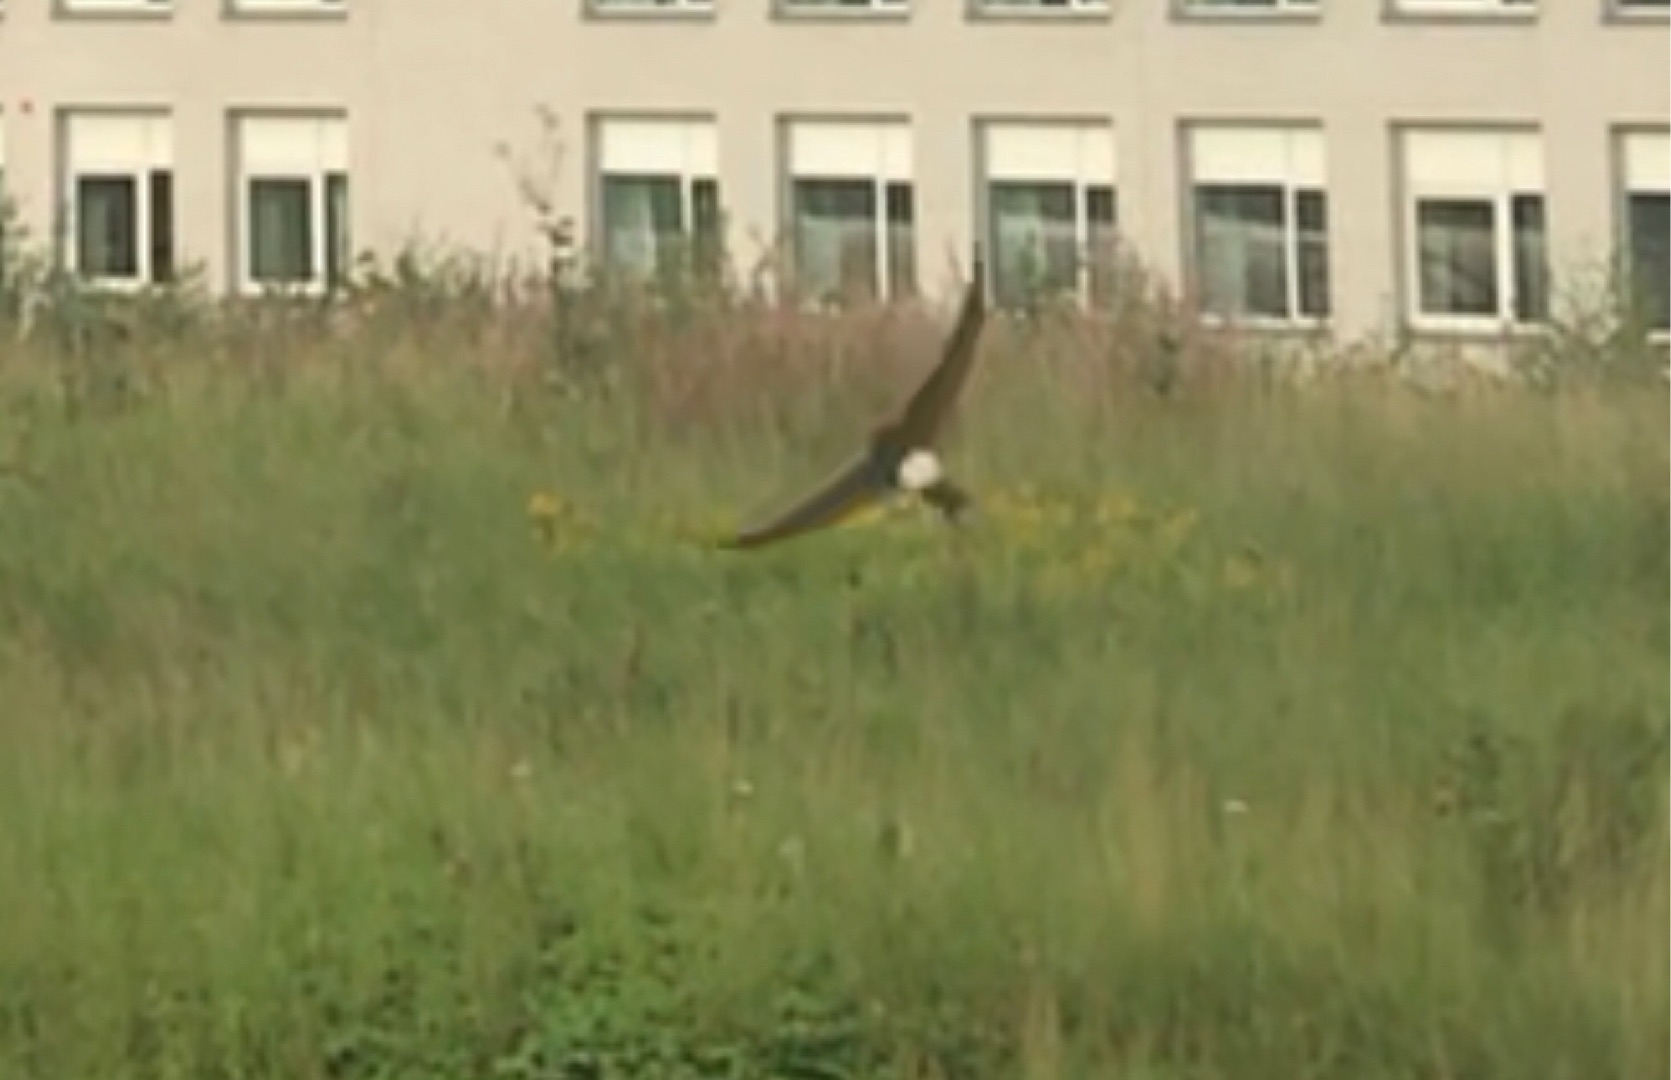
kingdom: Animalia
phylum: Chordata
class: Aves
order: Passeriformes
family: Hirundinidae
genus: Delichon
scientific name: Delichon urbicum
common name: Bysvale
